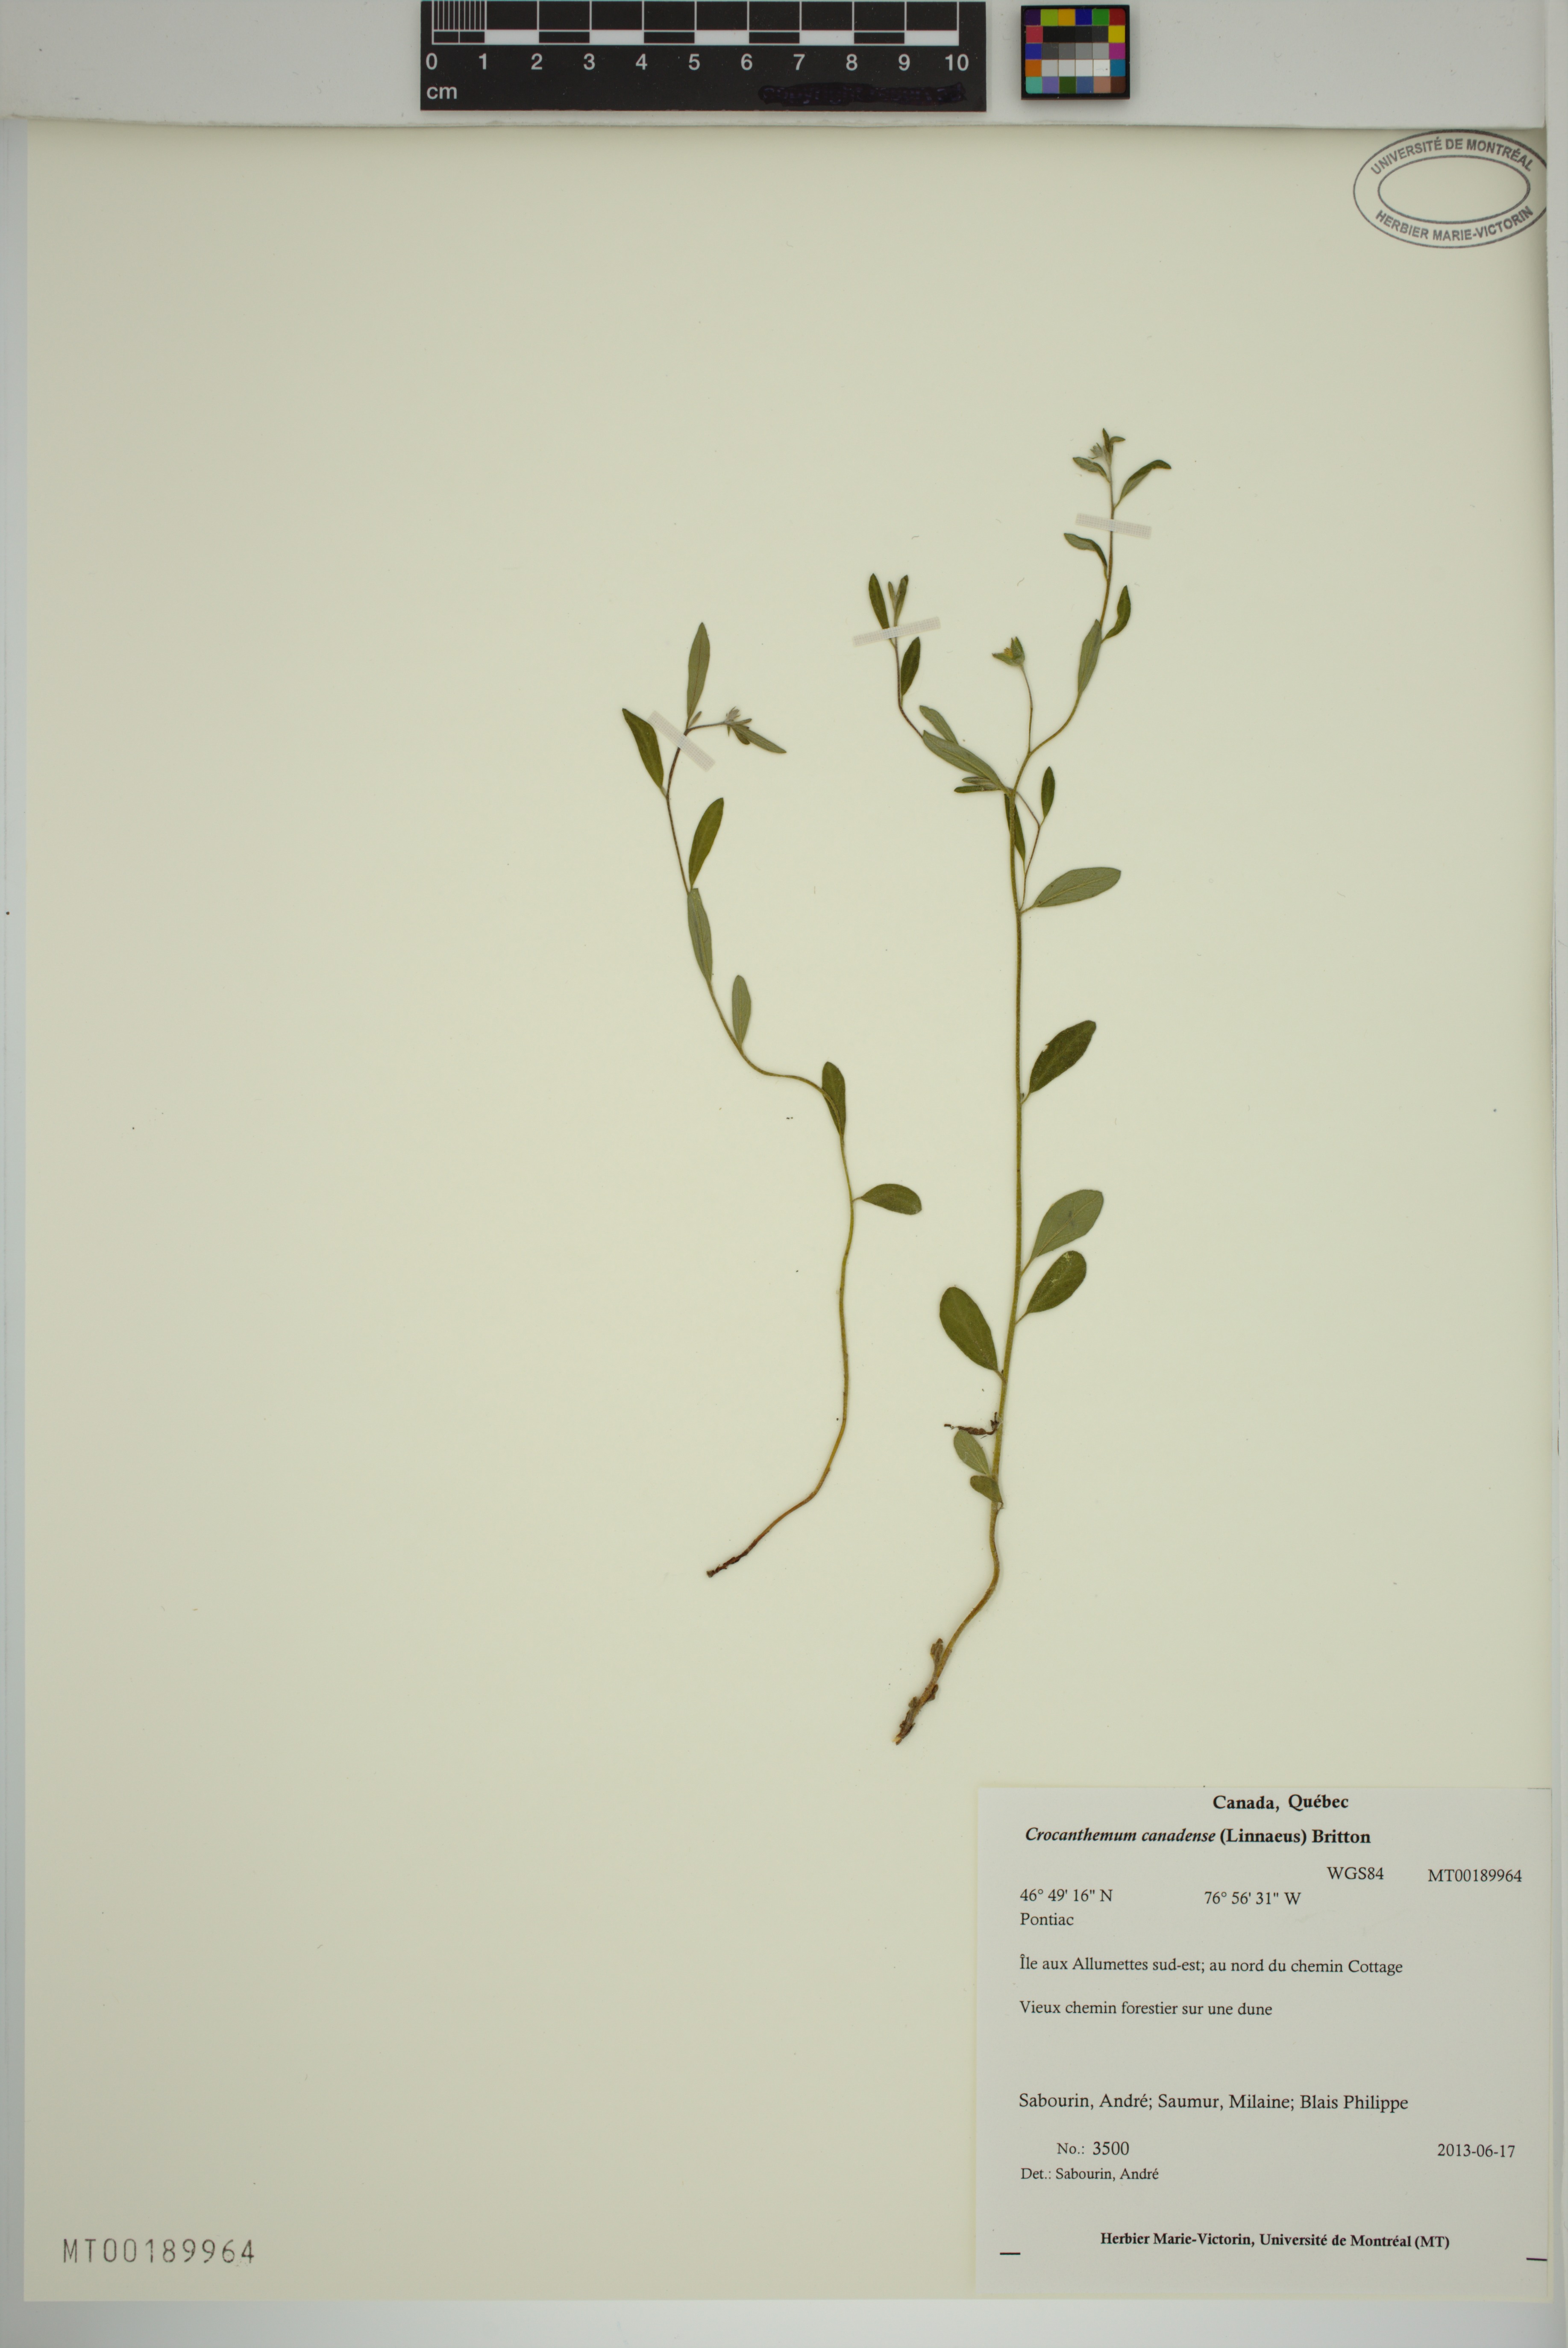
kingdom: Plantae
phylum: Tracheophyta
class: Magnoliopsida
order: Malvales
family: Cistaceae
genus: Crocanthemum
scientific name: Crocanthemum canadense
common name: Canada frostweed
